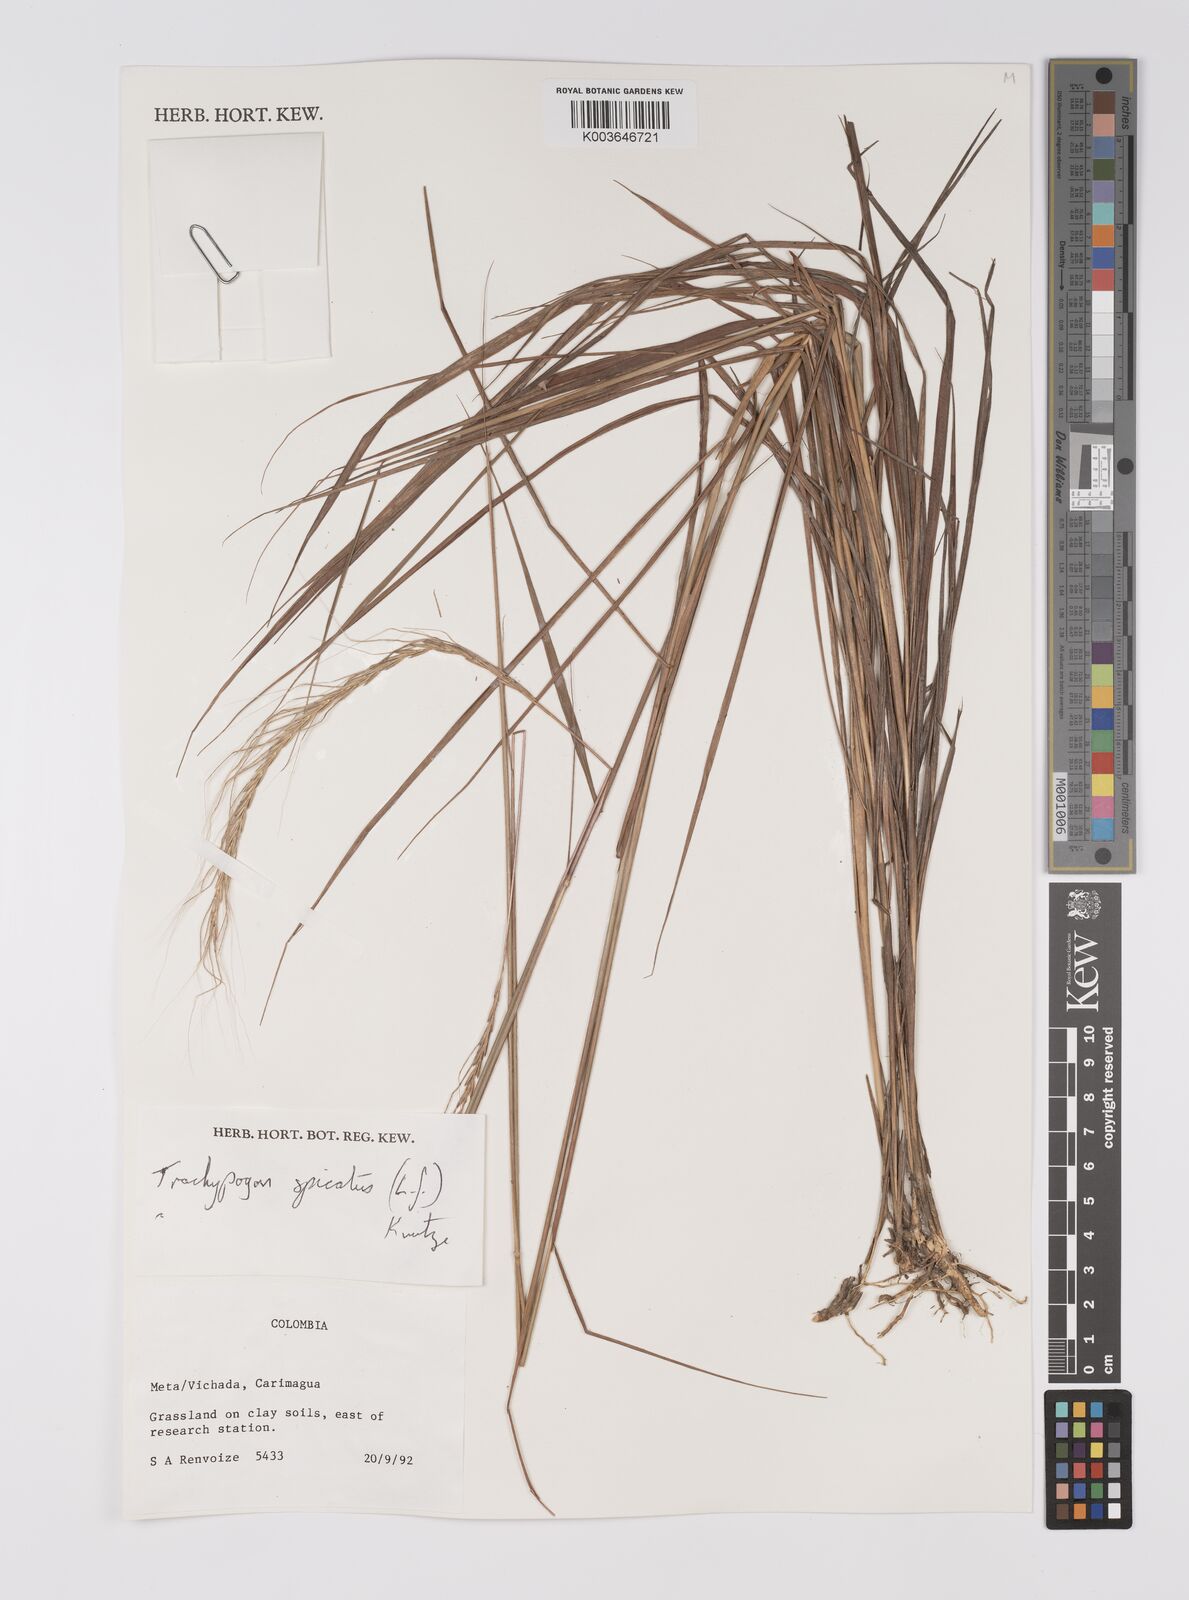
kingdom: Plantae
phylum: Tracheophyta
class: Liliopsida
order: Poales
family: Poaceae
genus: Trachypogon
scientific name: Trachypogon spicatus
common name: Crinkle-awn
